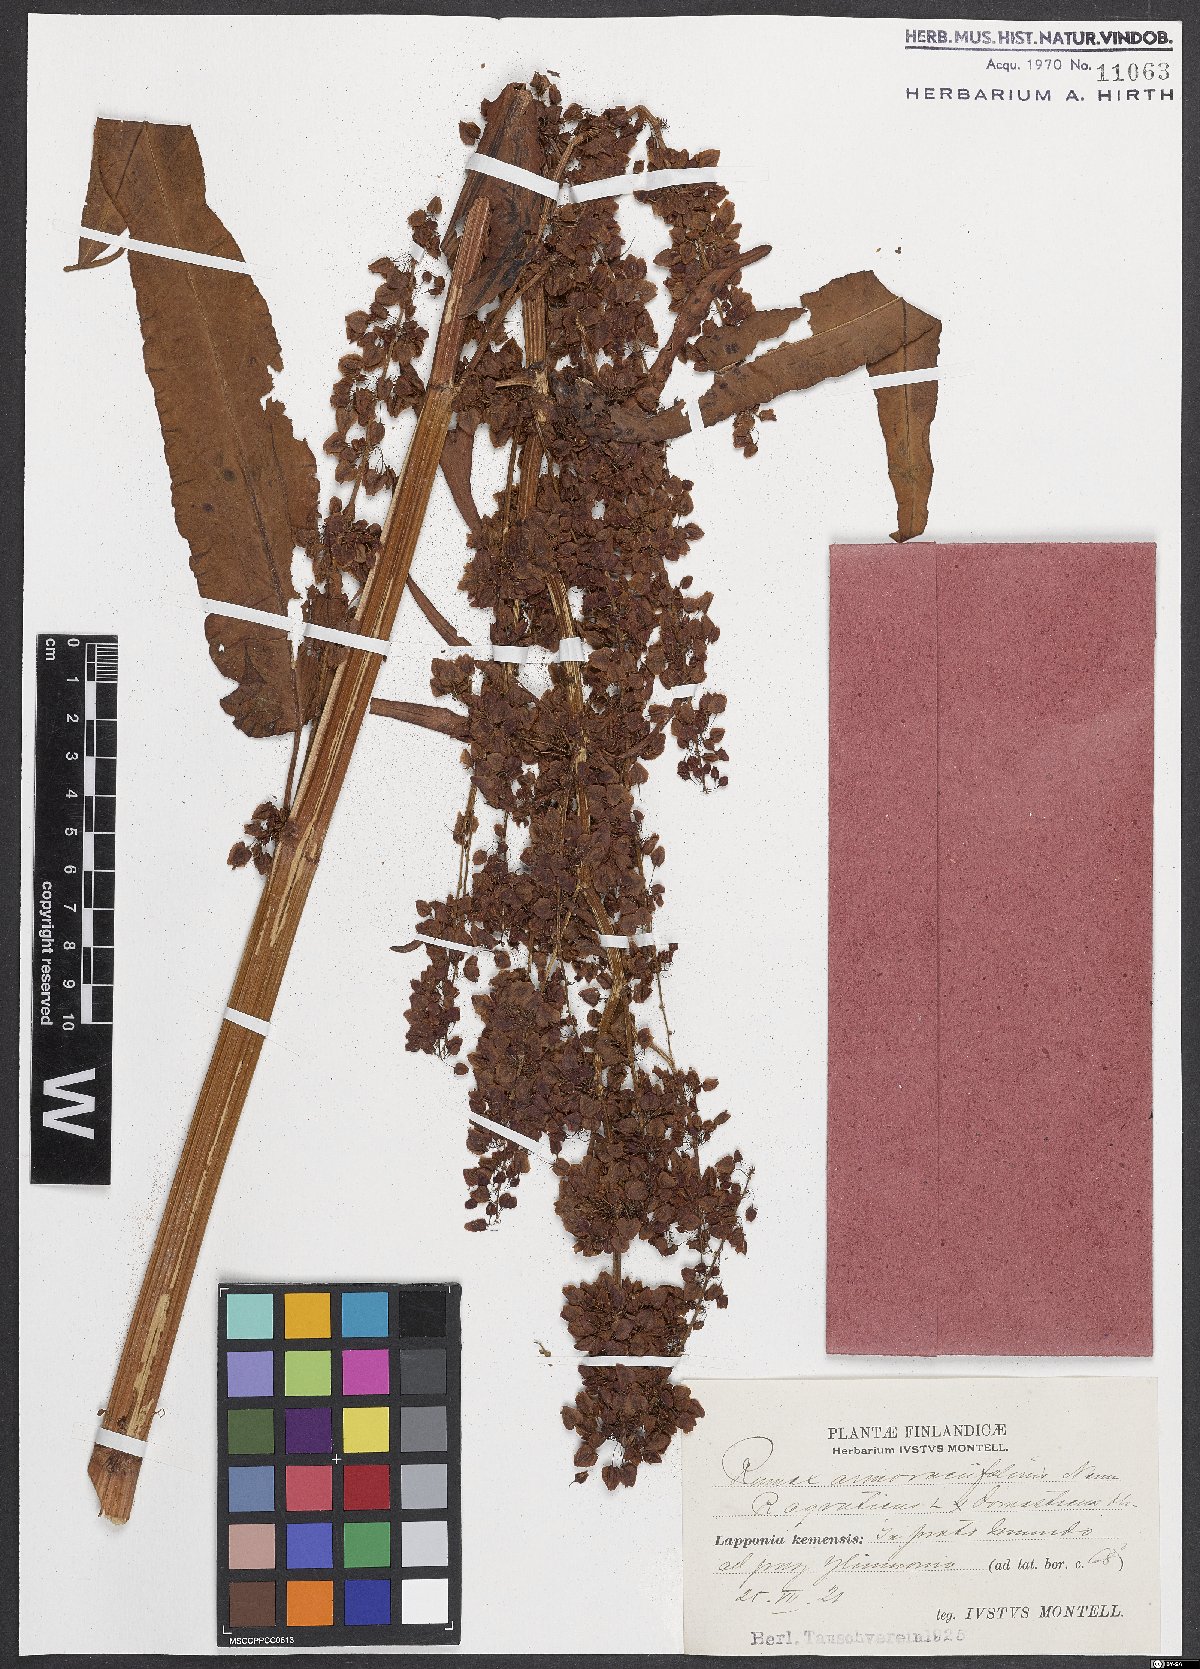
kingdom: Plantae
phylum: Tracheophyta
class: Magnoliopsida
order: Caryophyllales
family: Polygonaceae
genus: Rumex
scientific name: Rumex
